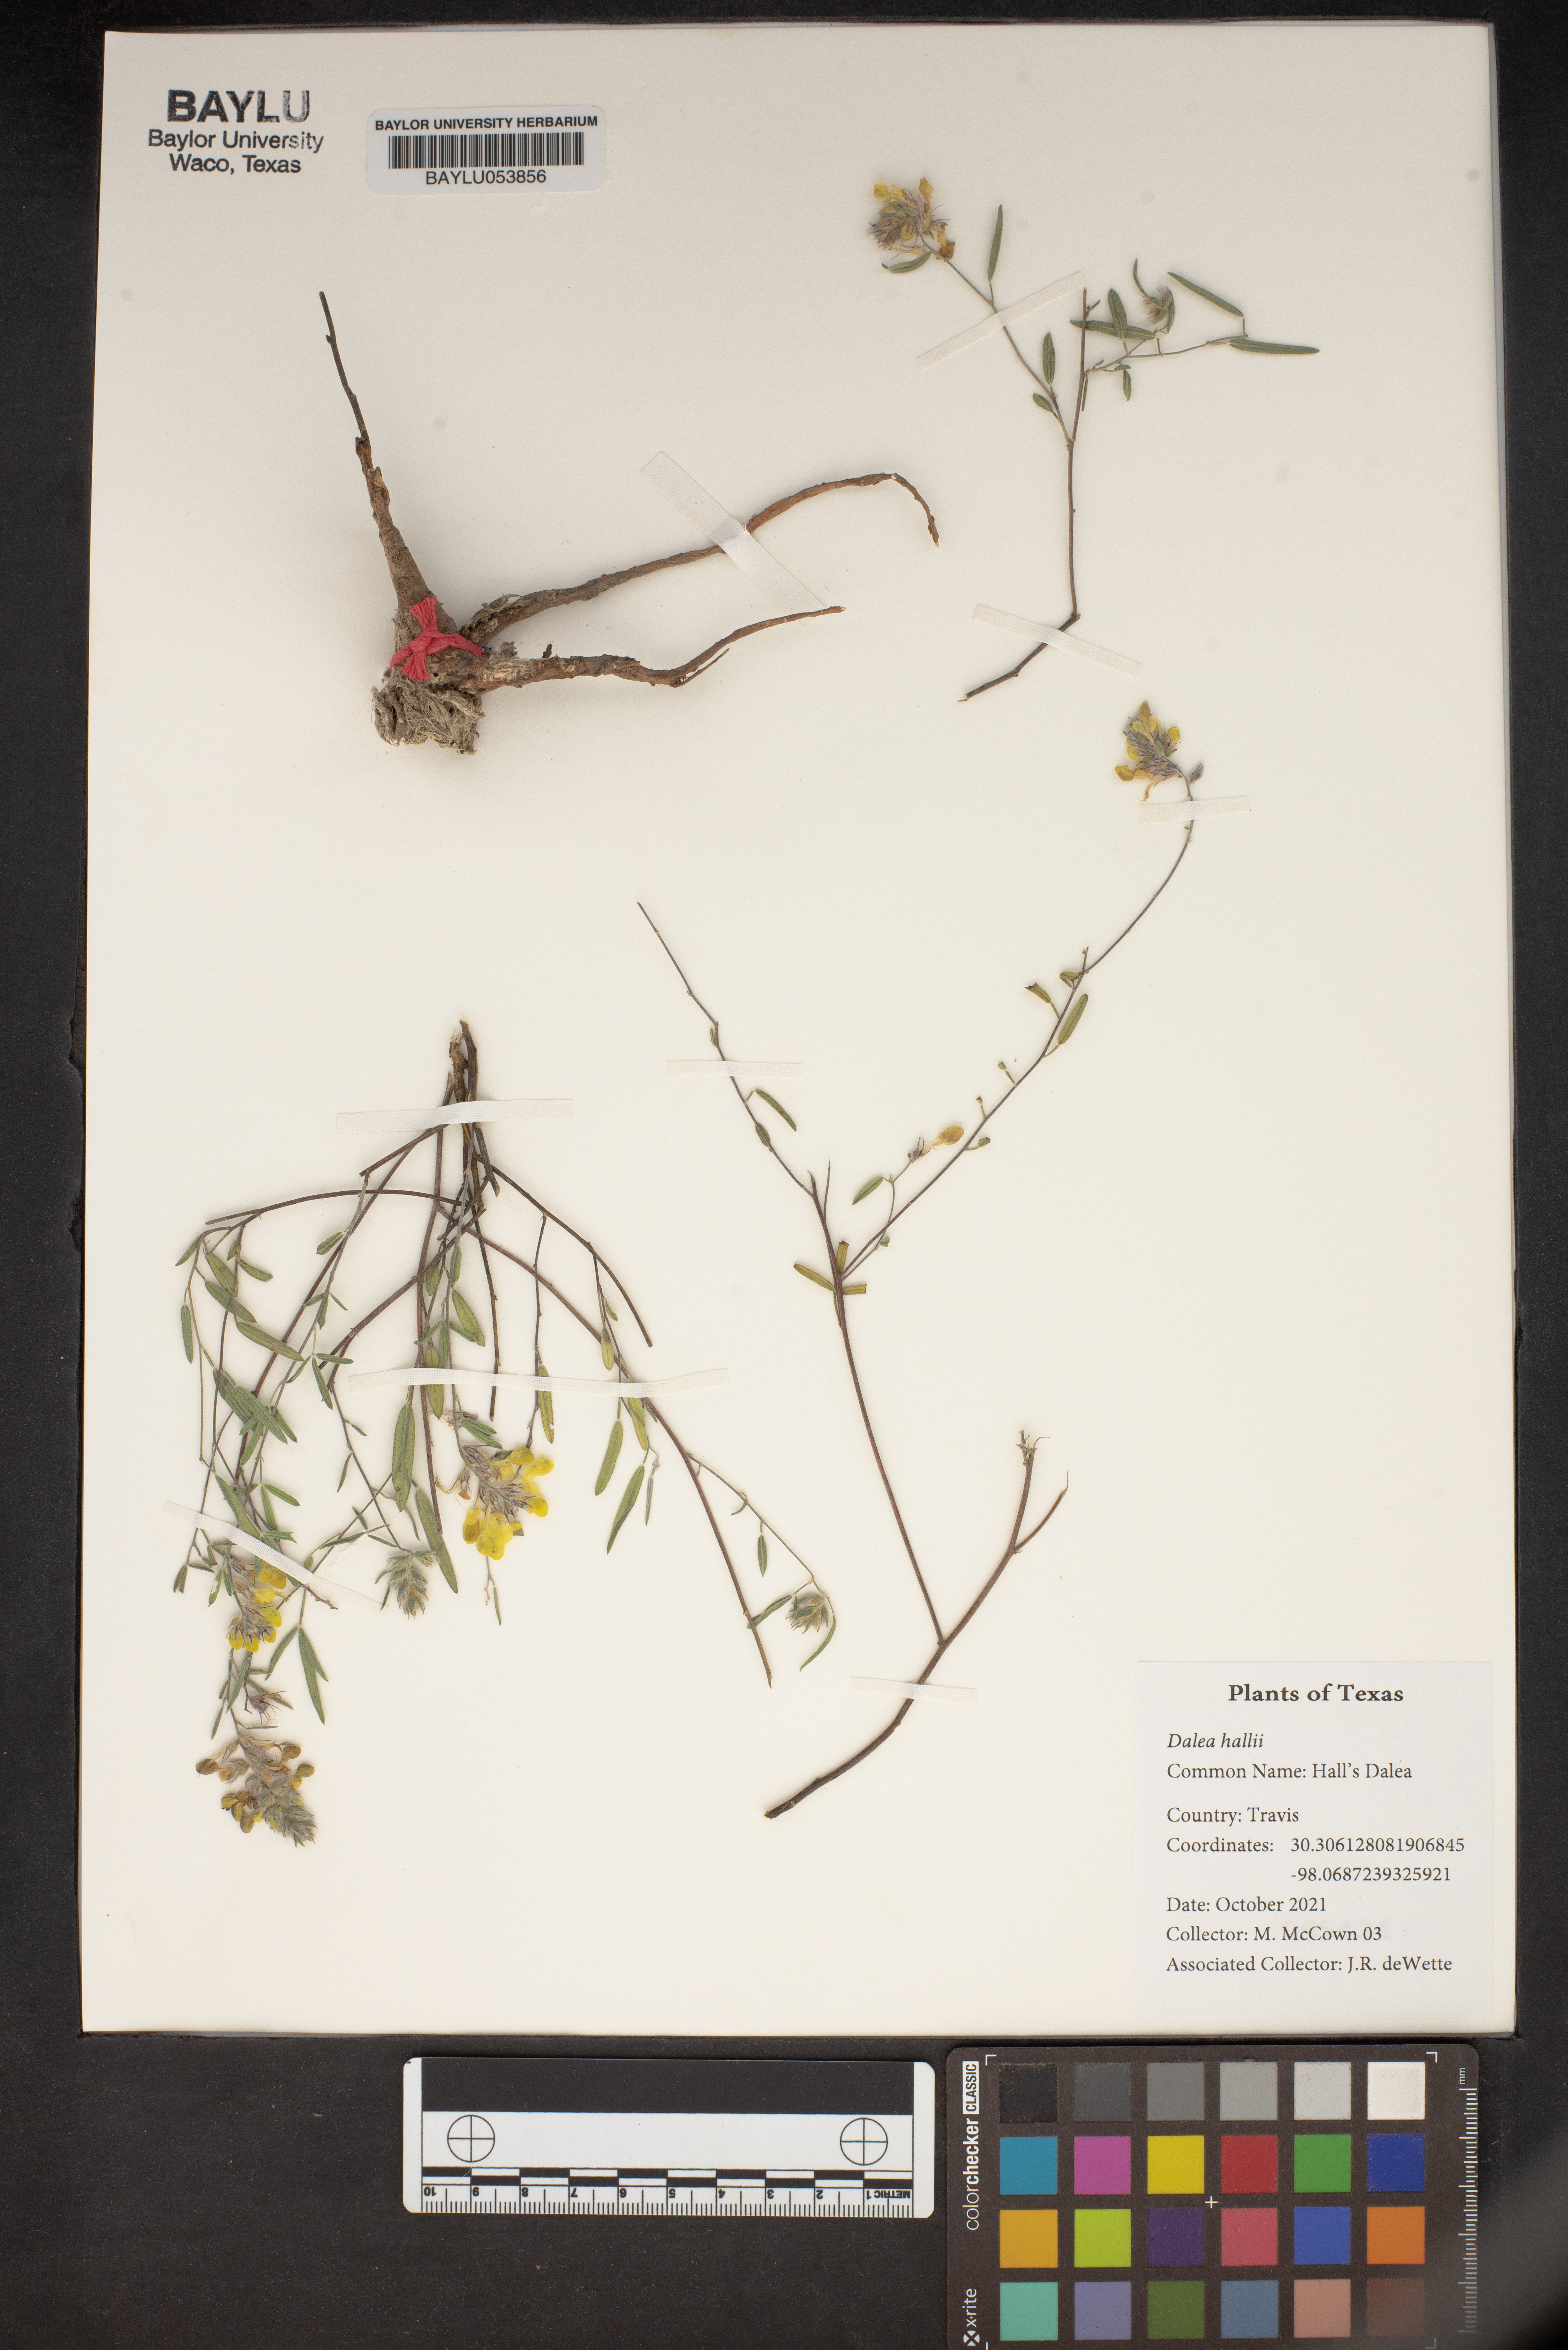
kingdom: Plantae
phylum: Tracheophyta
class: Magnoliopsida
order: Fabales
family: Fabaceae
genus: Dalea
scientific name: Dalea hallii
